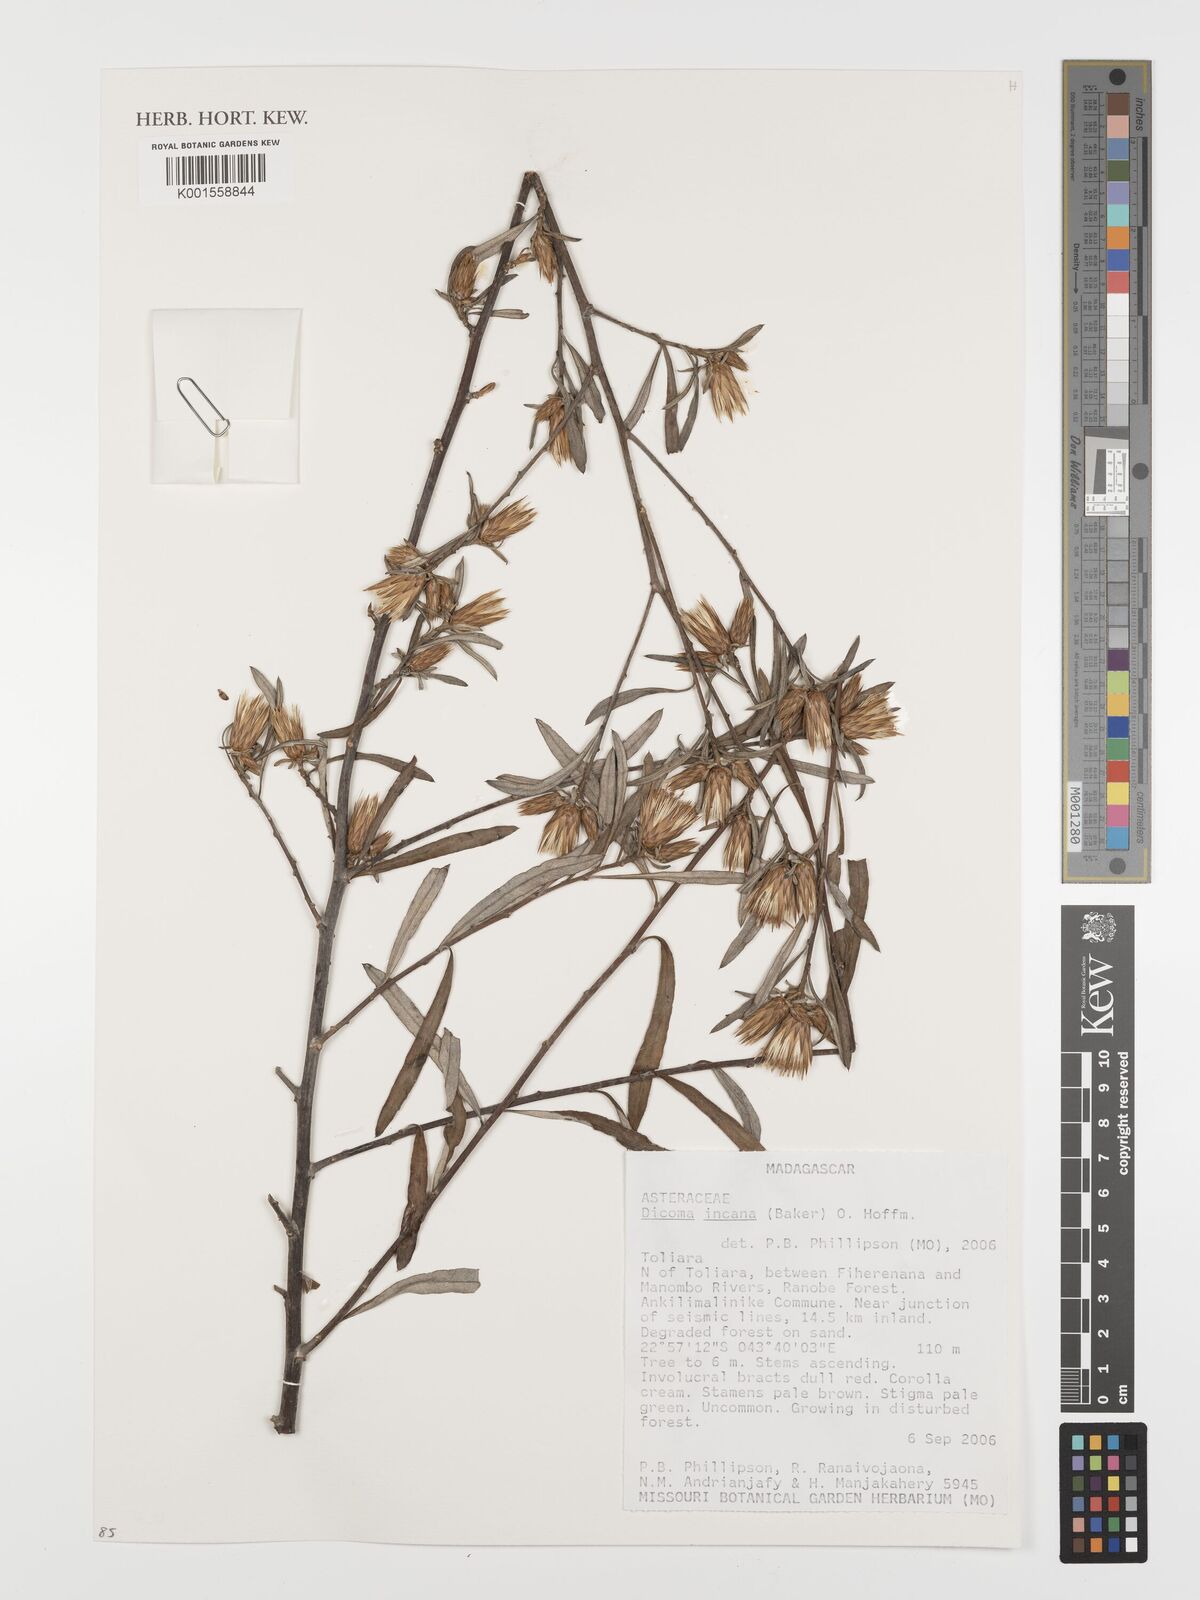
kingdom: Plantae
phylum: Tracheophyta
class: Magnoliopsida
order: Asterales
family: Asteraceae
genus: Dicoma
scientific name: Dicoma incana
